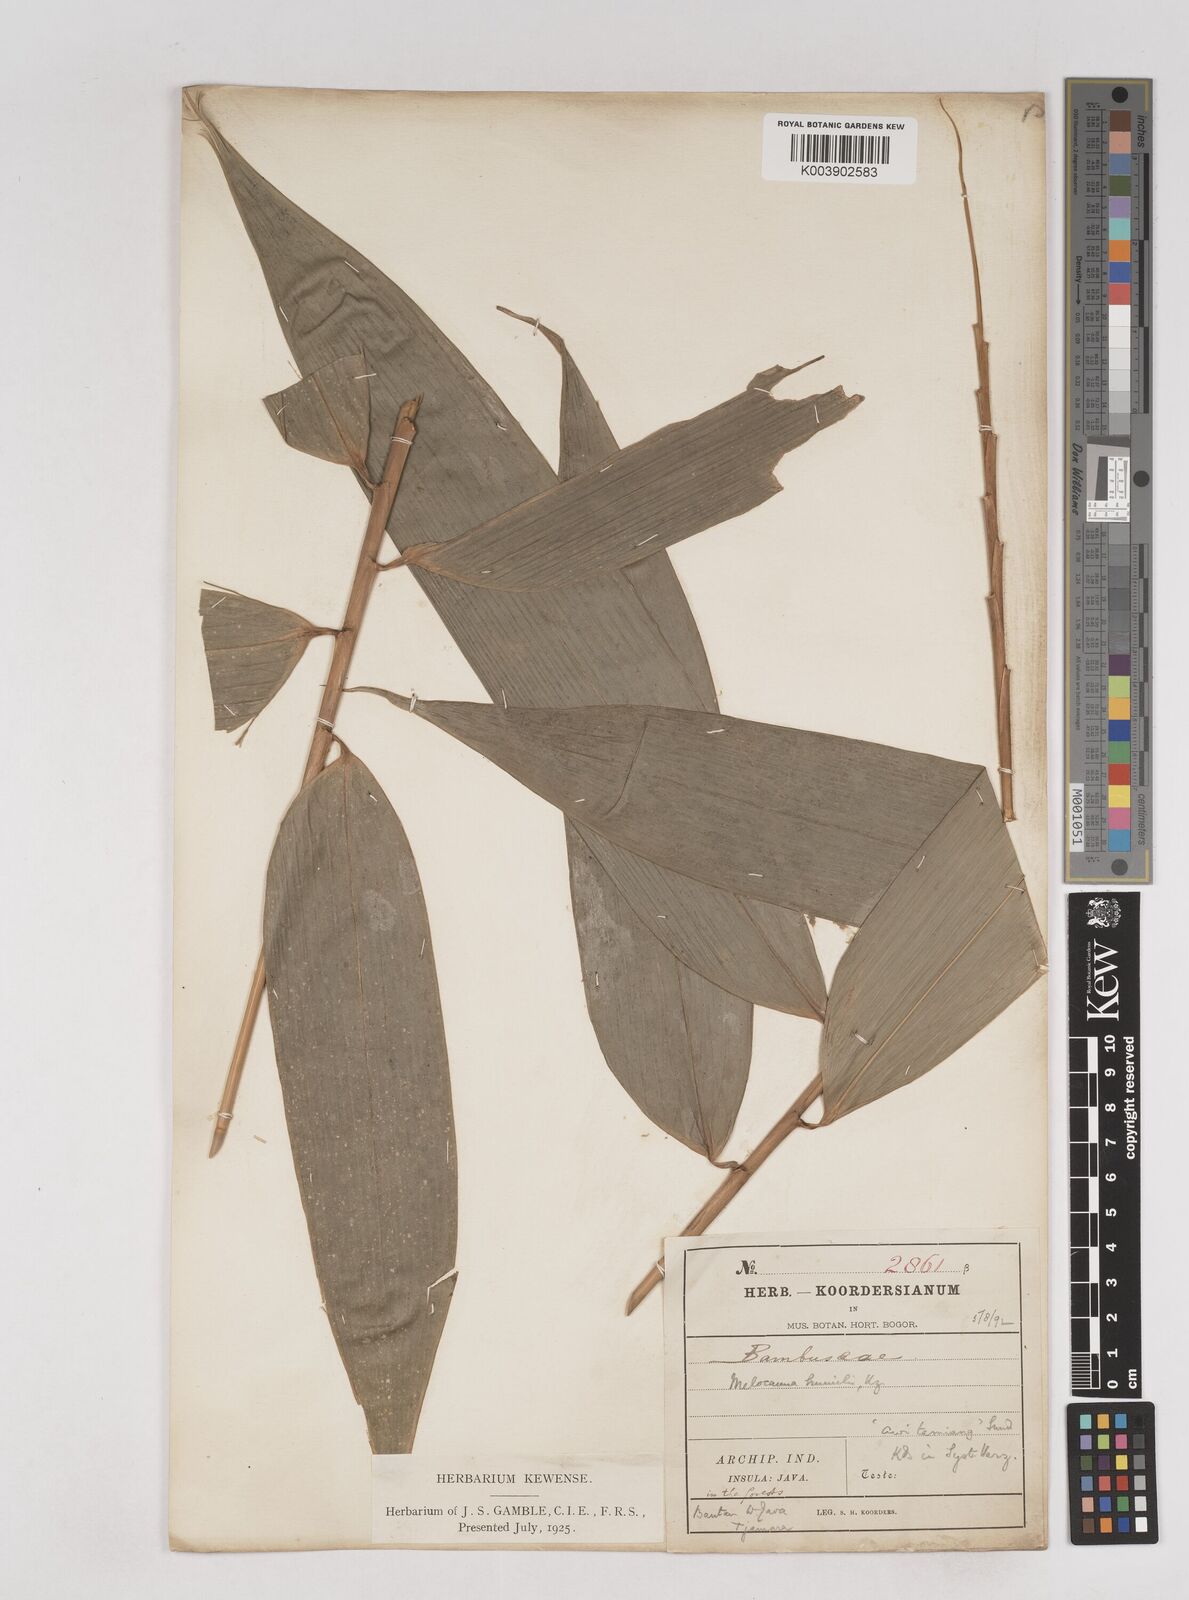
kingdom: Plantae
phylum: Tracheophyta
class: Liliopsida
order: Poales
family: Poaceae
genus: Schizostachyum
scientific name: Schizostachyum
